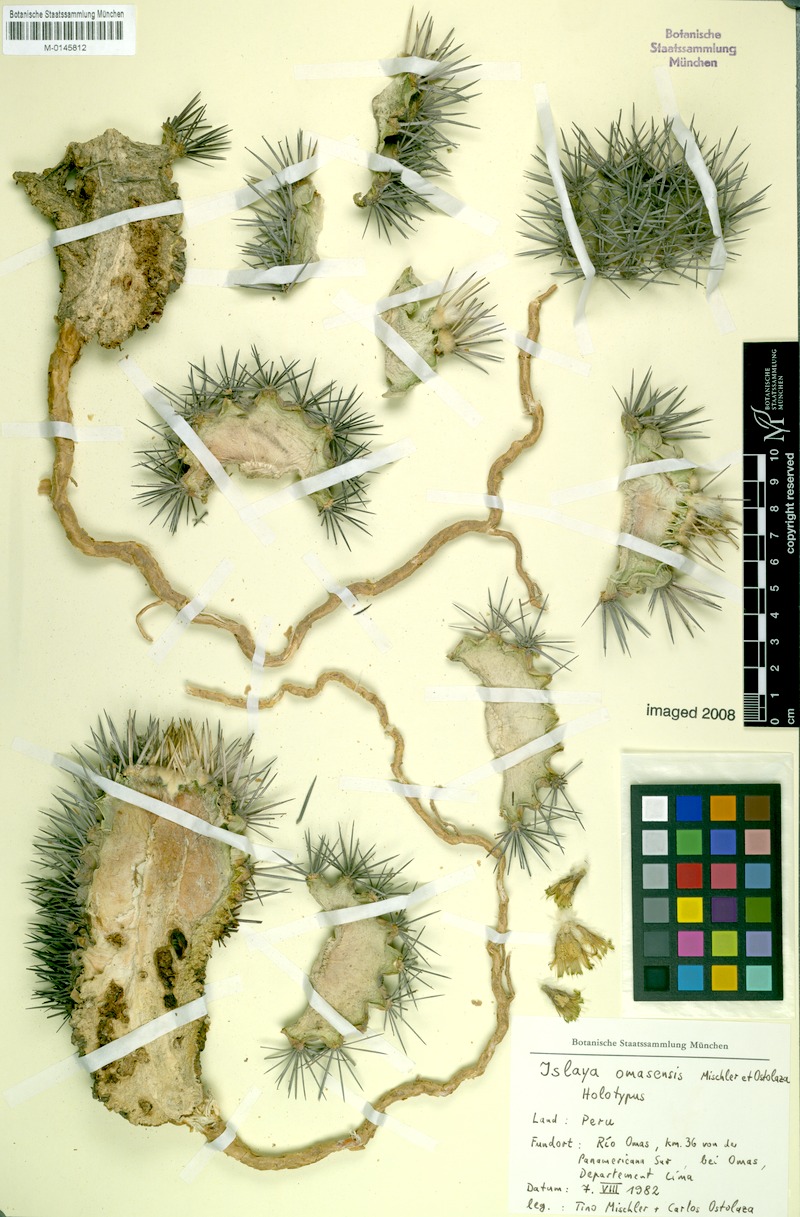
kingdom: Plantae
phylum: Tracheophyta
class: Magnoliopsida
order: Caryophyllales
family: Cactaceae
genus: Eriosyce
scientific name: Eriosyce islayensis
